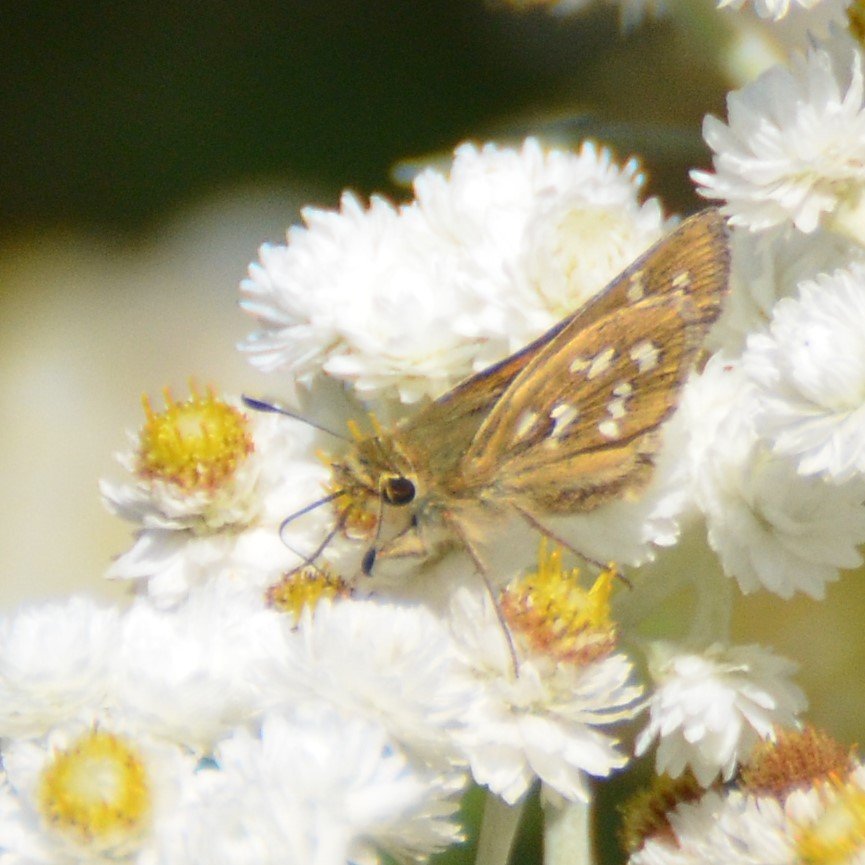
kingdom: Animalia
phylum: Arthropoda
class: Insecta
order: Lepidoptera
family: Hesperiidae
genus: Hesperia
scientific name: Hesperia comma
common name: Common Branded Skipper
